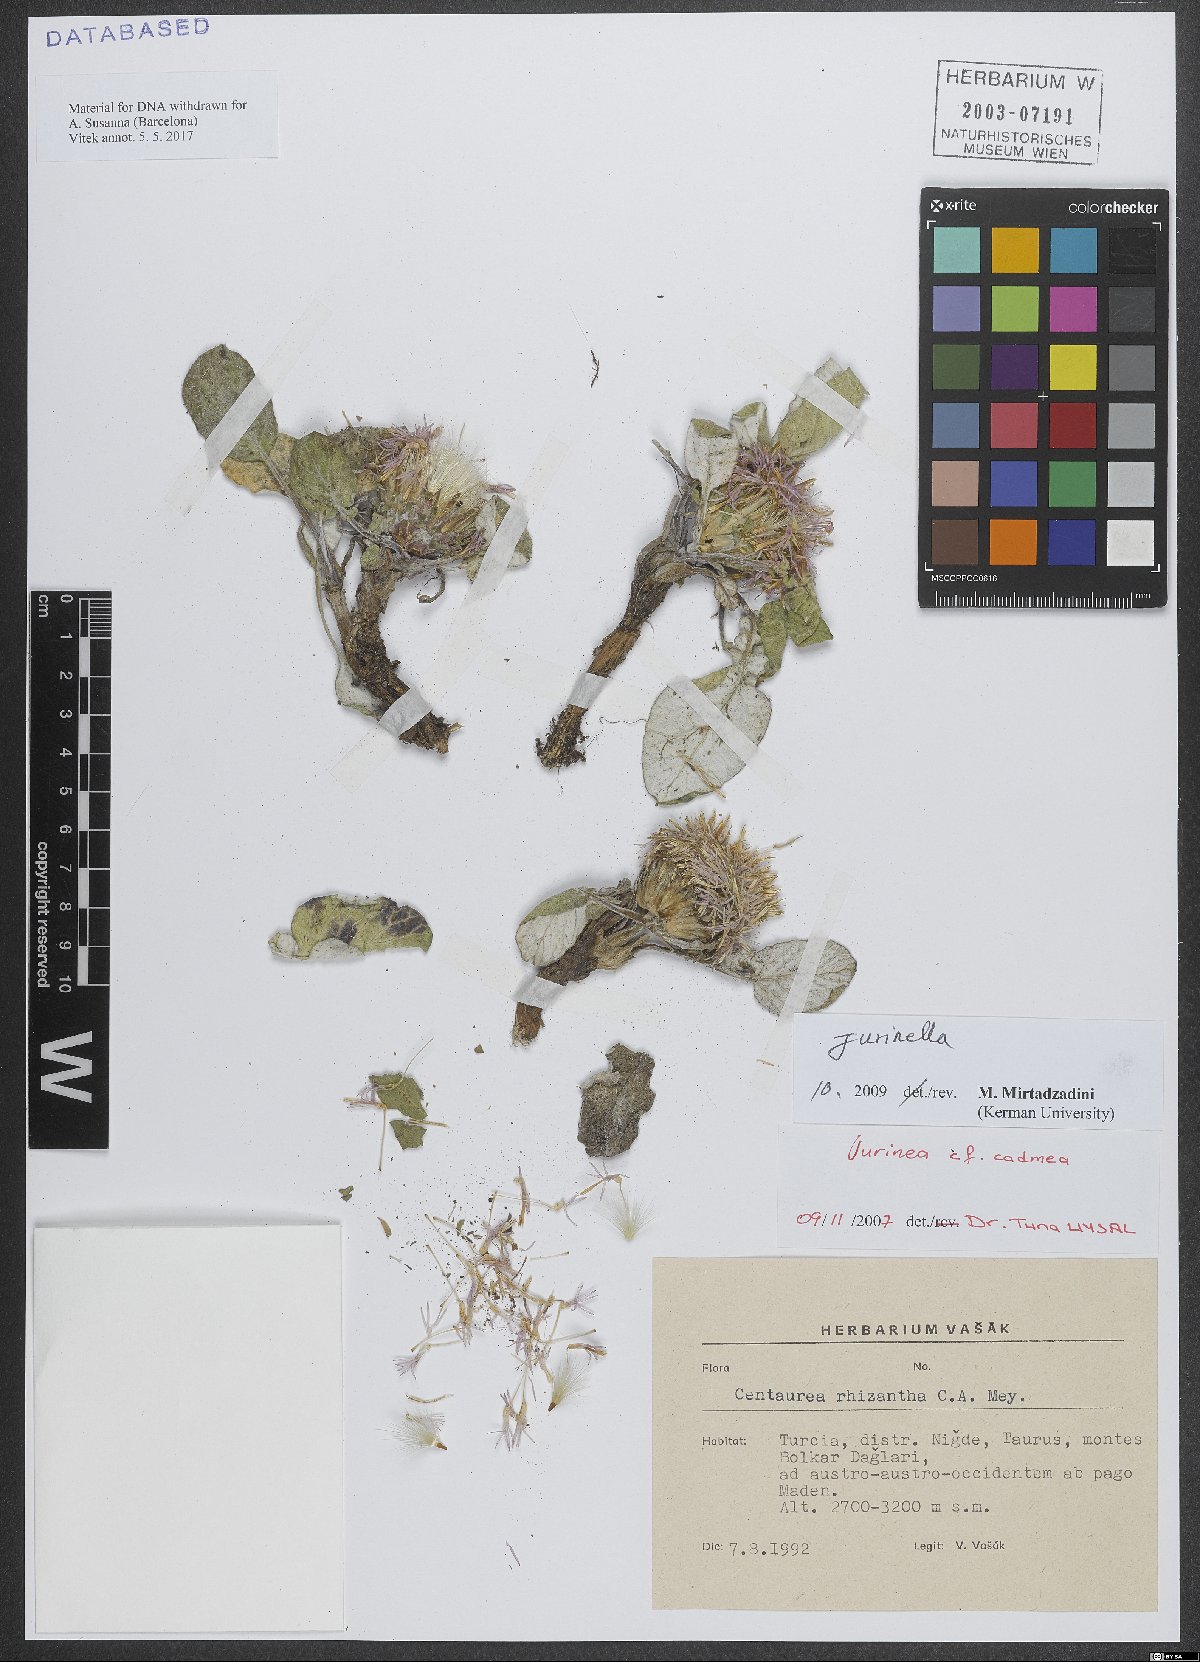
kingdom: Animalia
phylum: Arthropoda
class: Insecta
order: Diptera
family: Tachinidae
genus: Jurinella
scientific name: Jurinella
